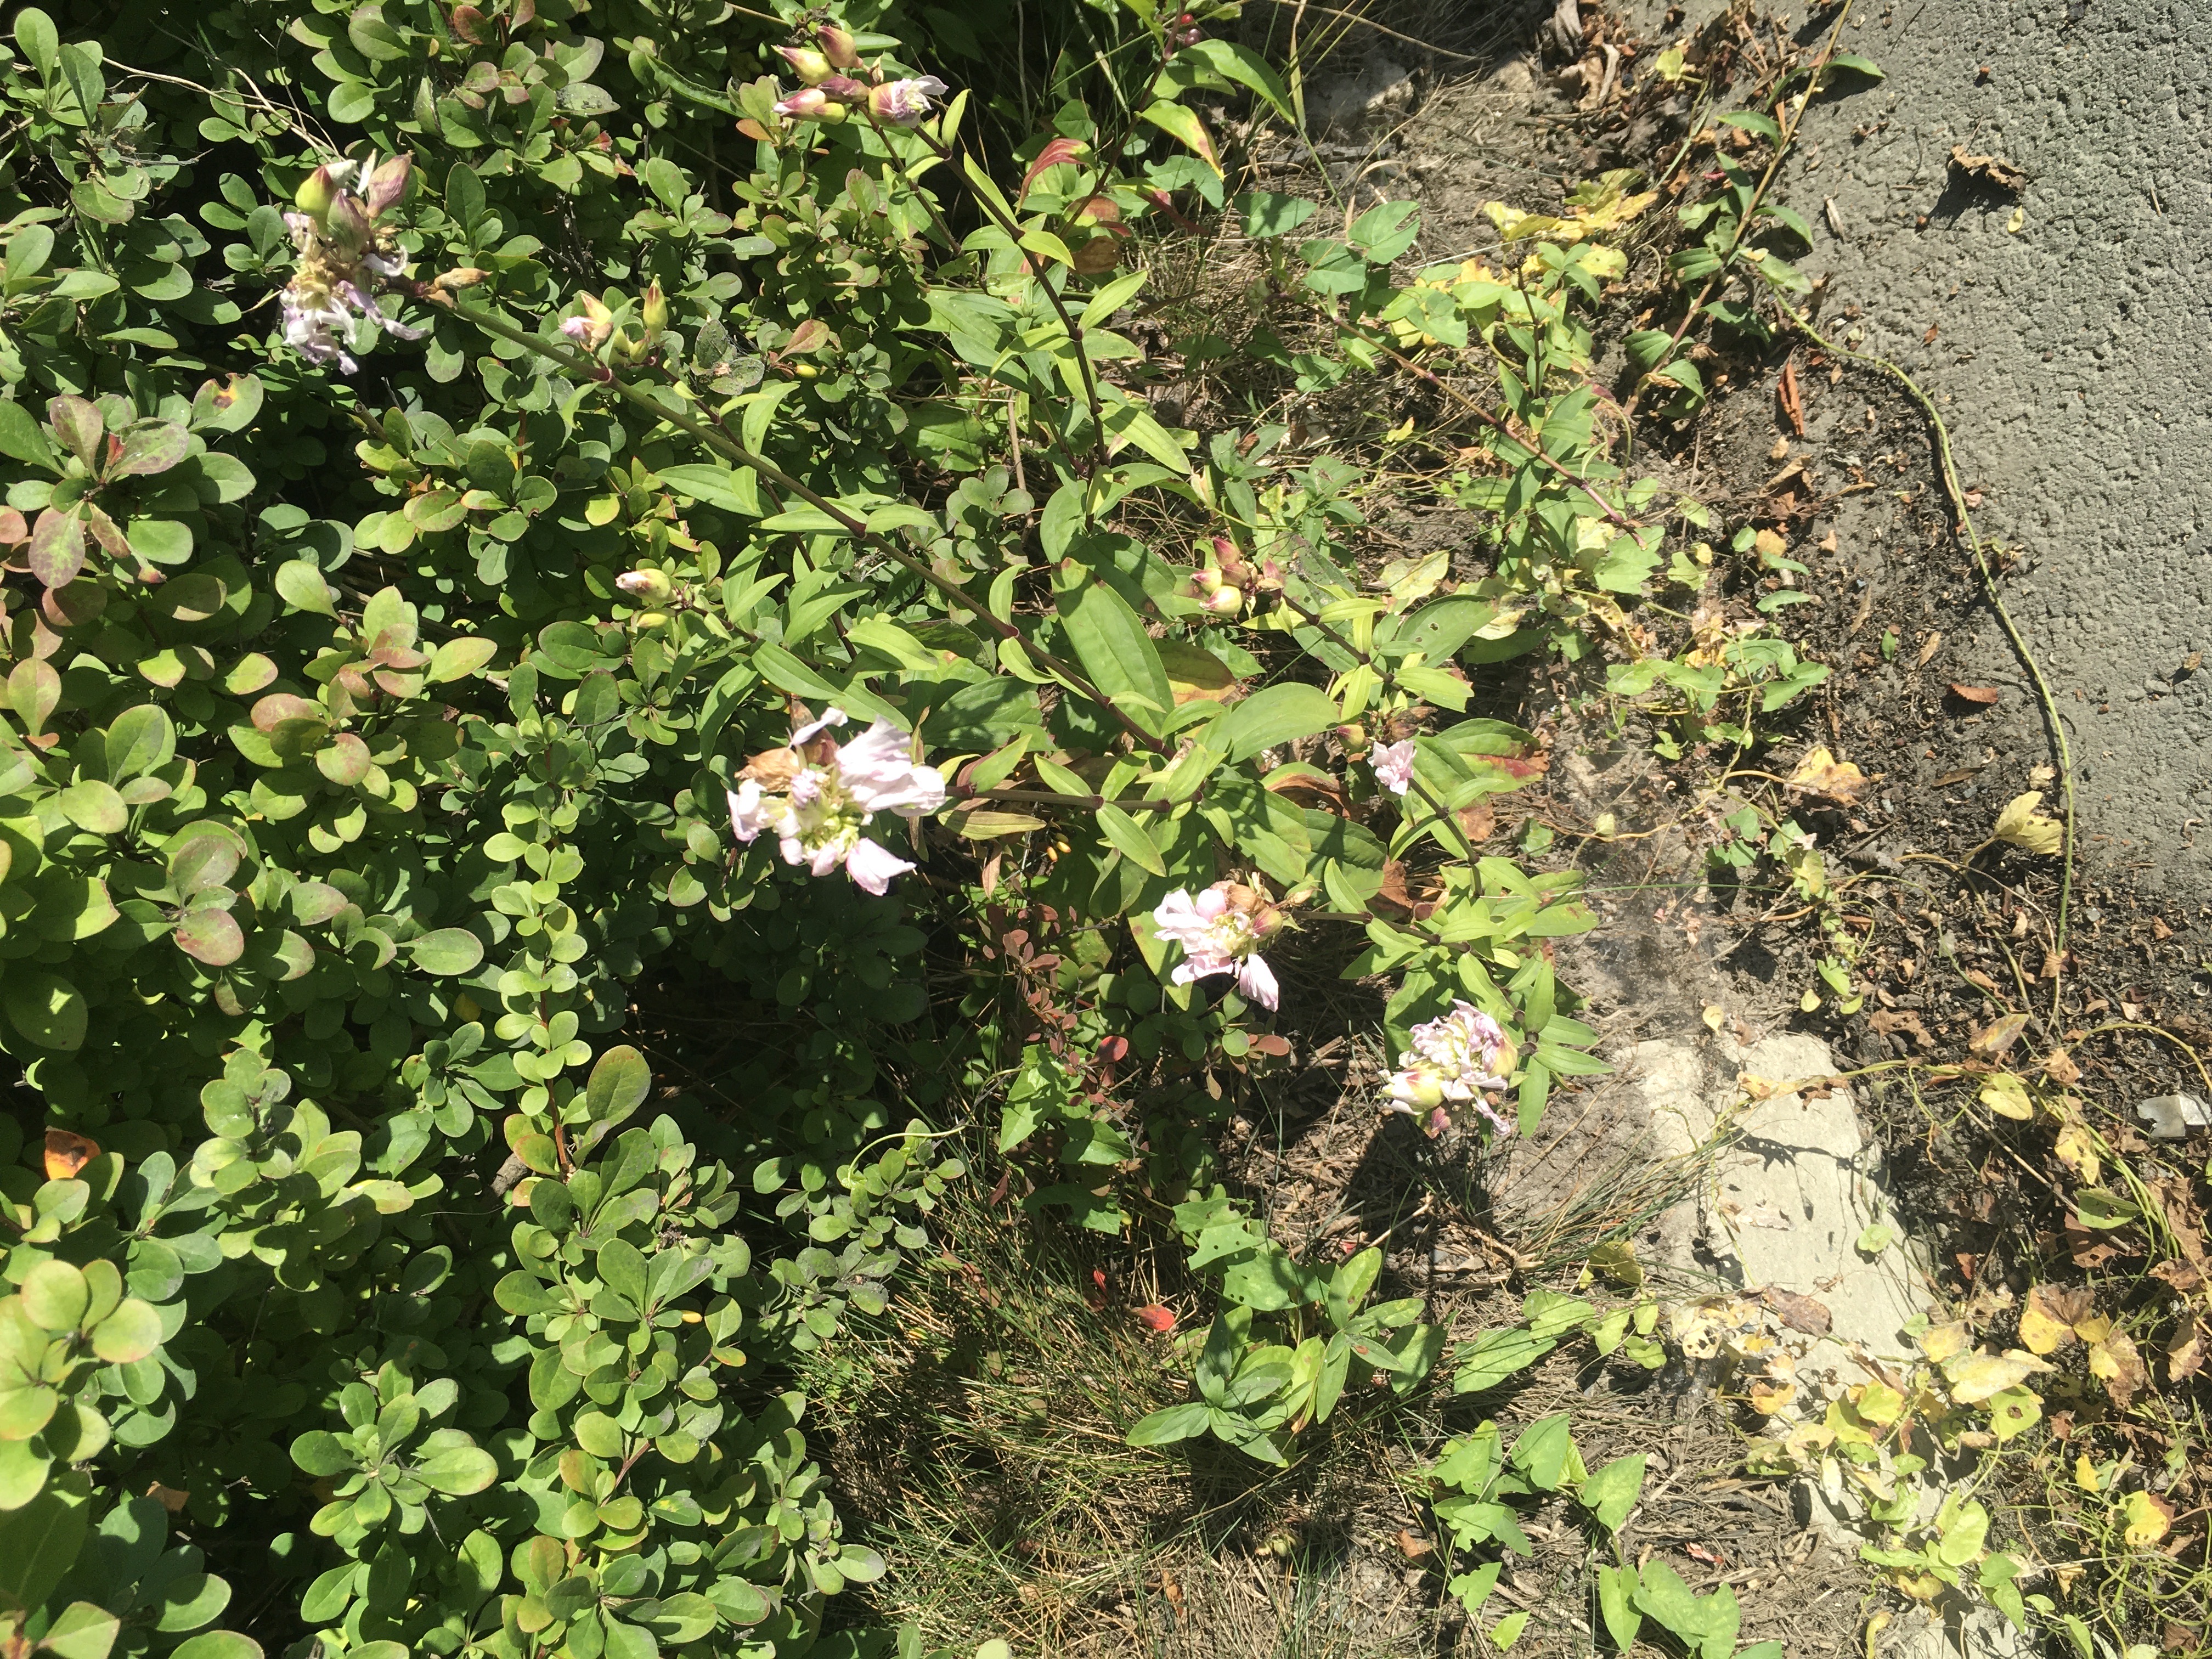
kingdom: Plantae
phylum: Tracheophyta
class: Magnoliopsida
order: Caryophyllales
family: Caryophyllaceae
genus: Saponaria
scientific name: Saponaria officinalis
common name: såpeurt
